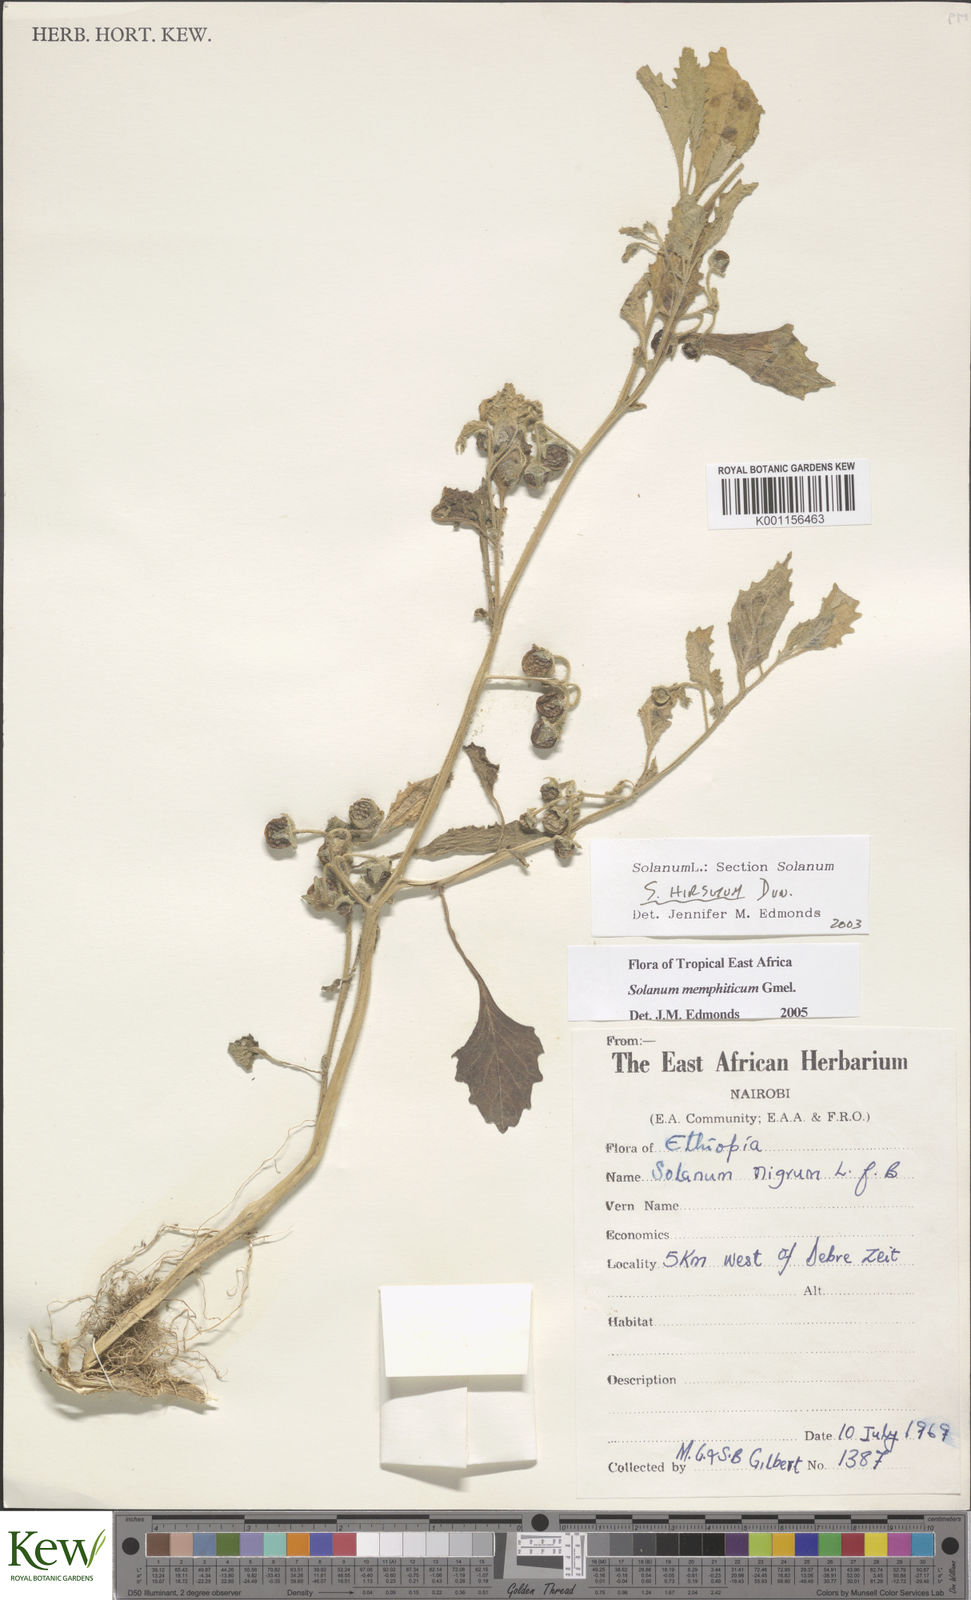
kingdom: Plantae
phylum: Tracheophyta
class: Magnoliopsida
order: Solanales
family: Solanaceae
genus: Solanum
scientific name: Solanum memphiticum
